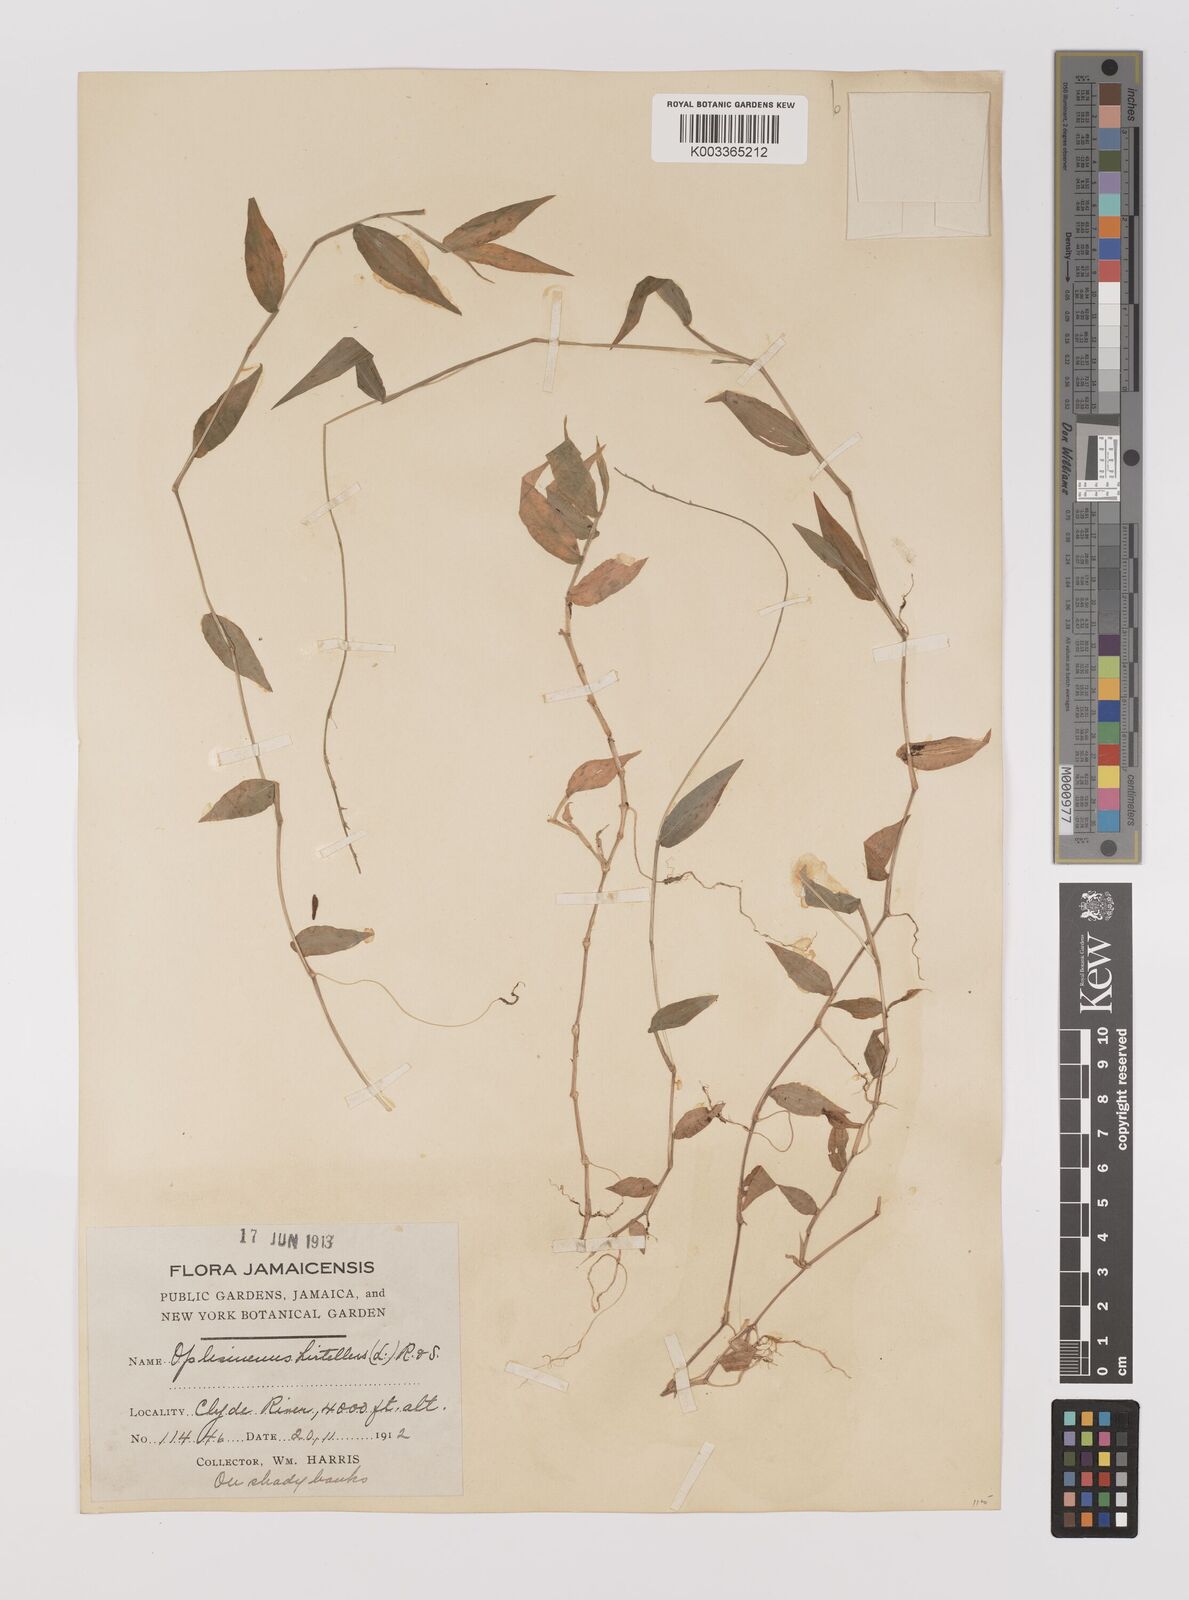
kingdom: Plantae
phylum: Tracheophyta
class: Liliopsida
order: Poales
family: Poaceae
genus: Oplismenus
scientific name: Oplismenus hirtellus
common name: Basketgrass
